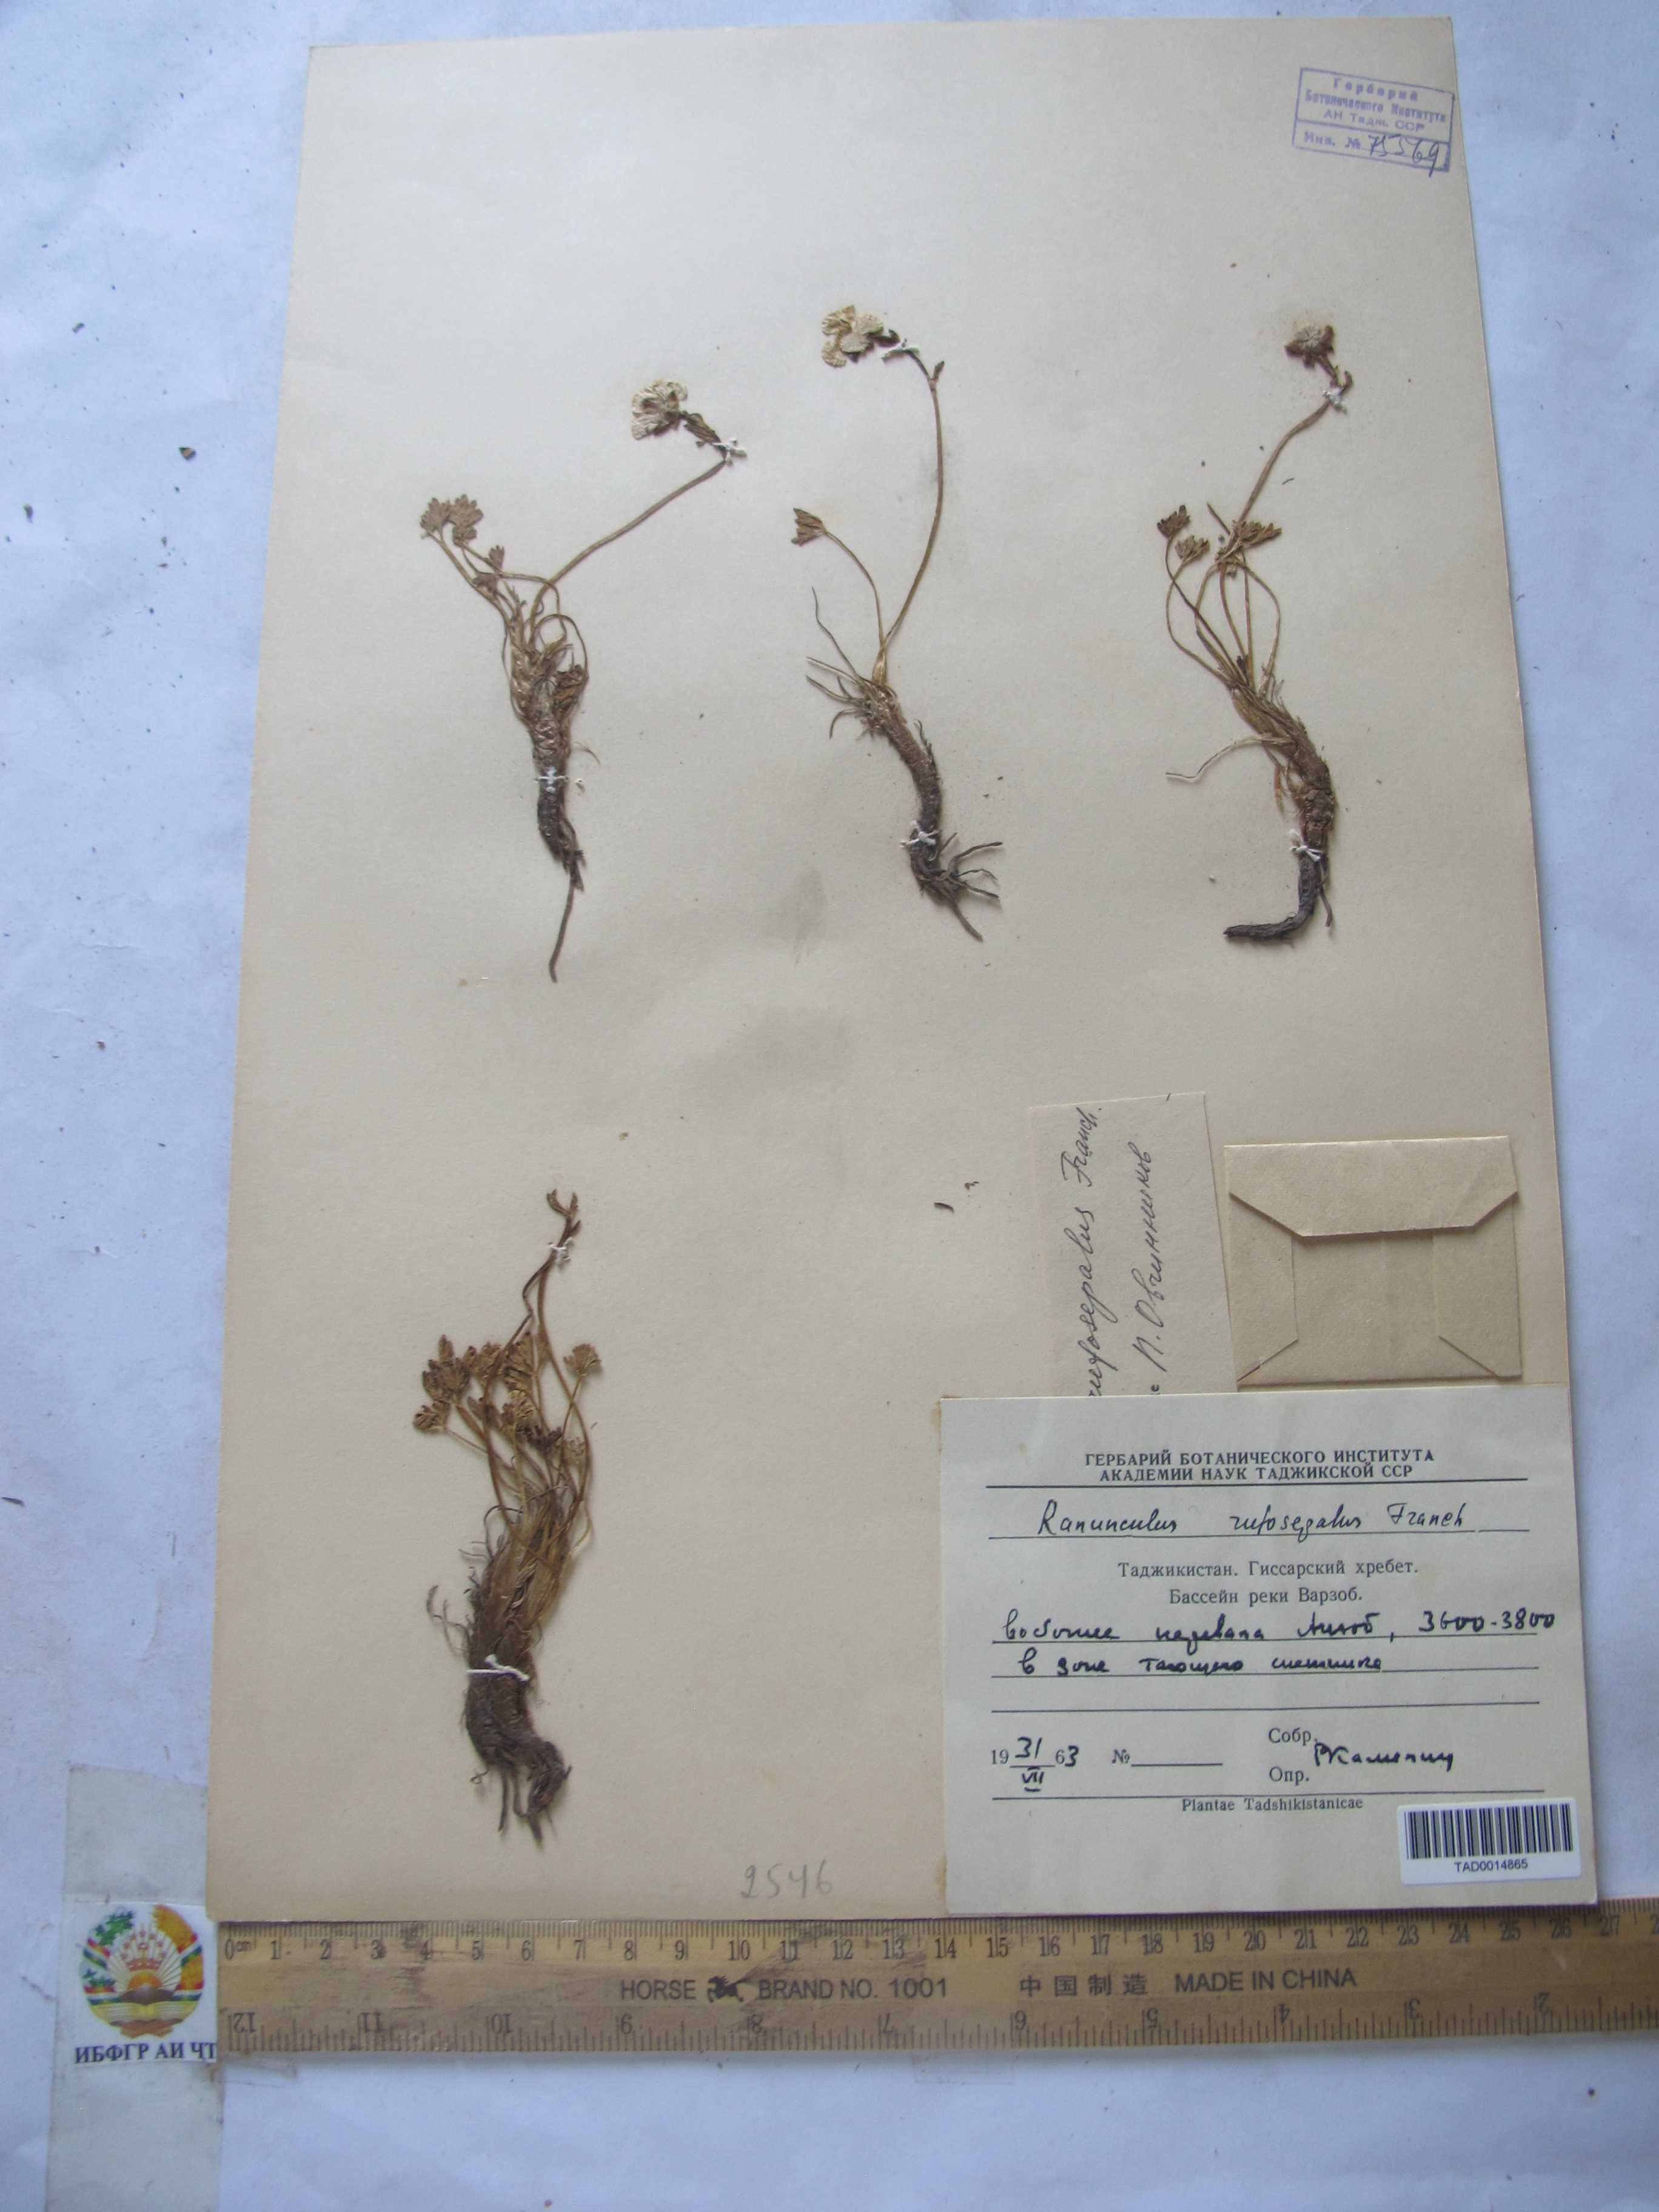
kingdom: Plantae
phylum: Tracheophyta
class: Magnoliopsida
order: Ranunculales
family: Ranunculaceae
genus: Ranunculus
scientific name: Ranunculus rufosepalus
